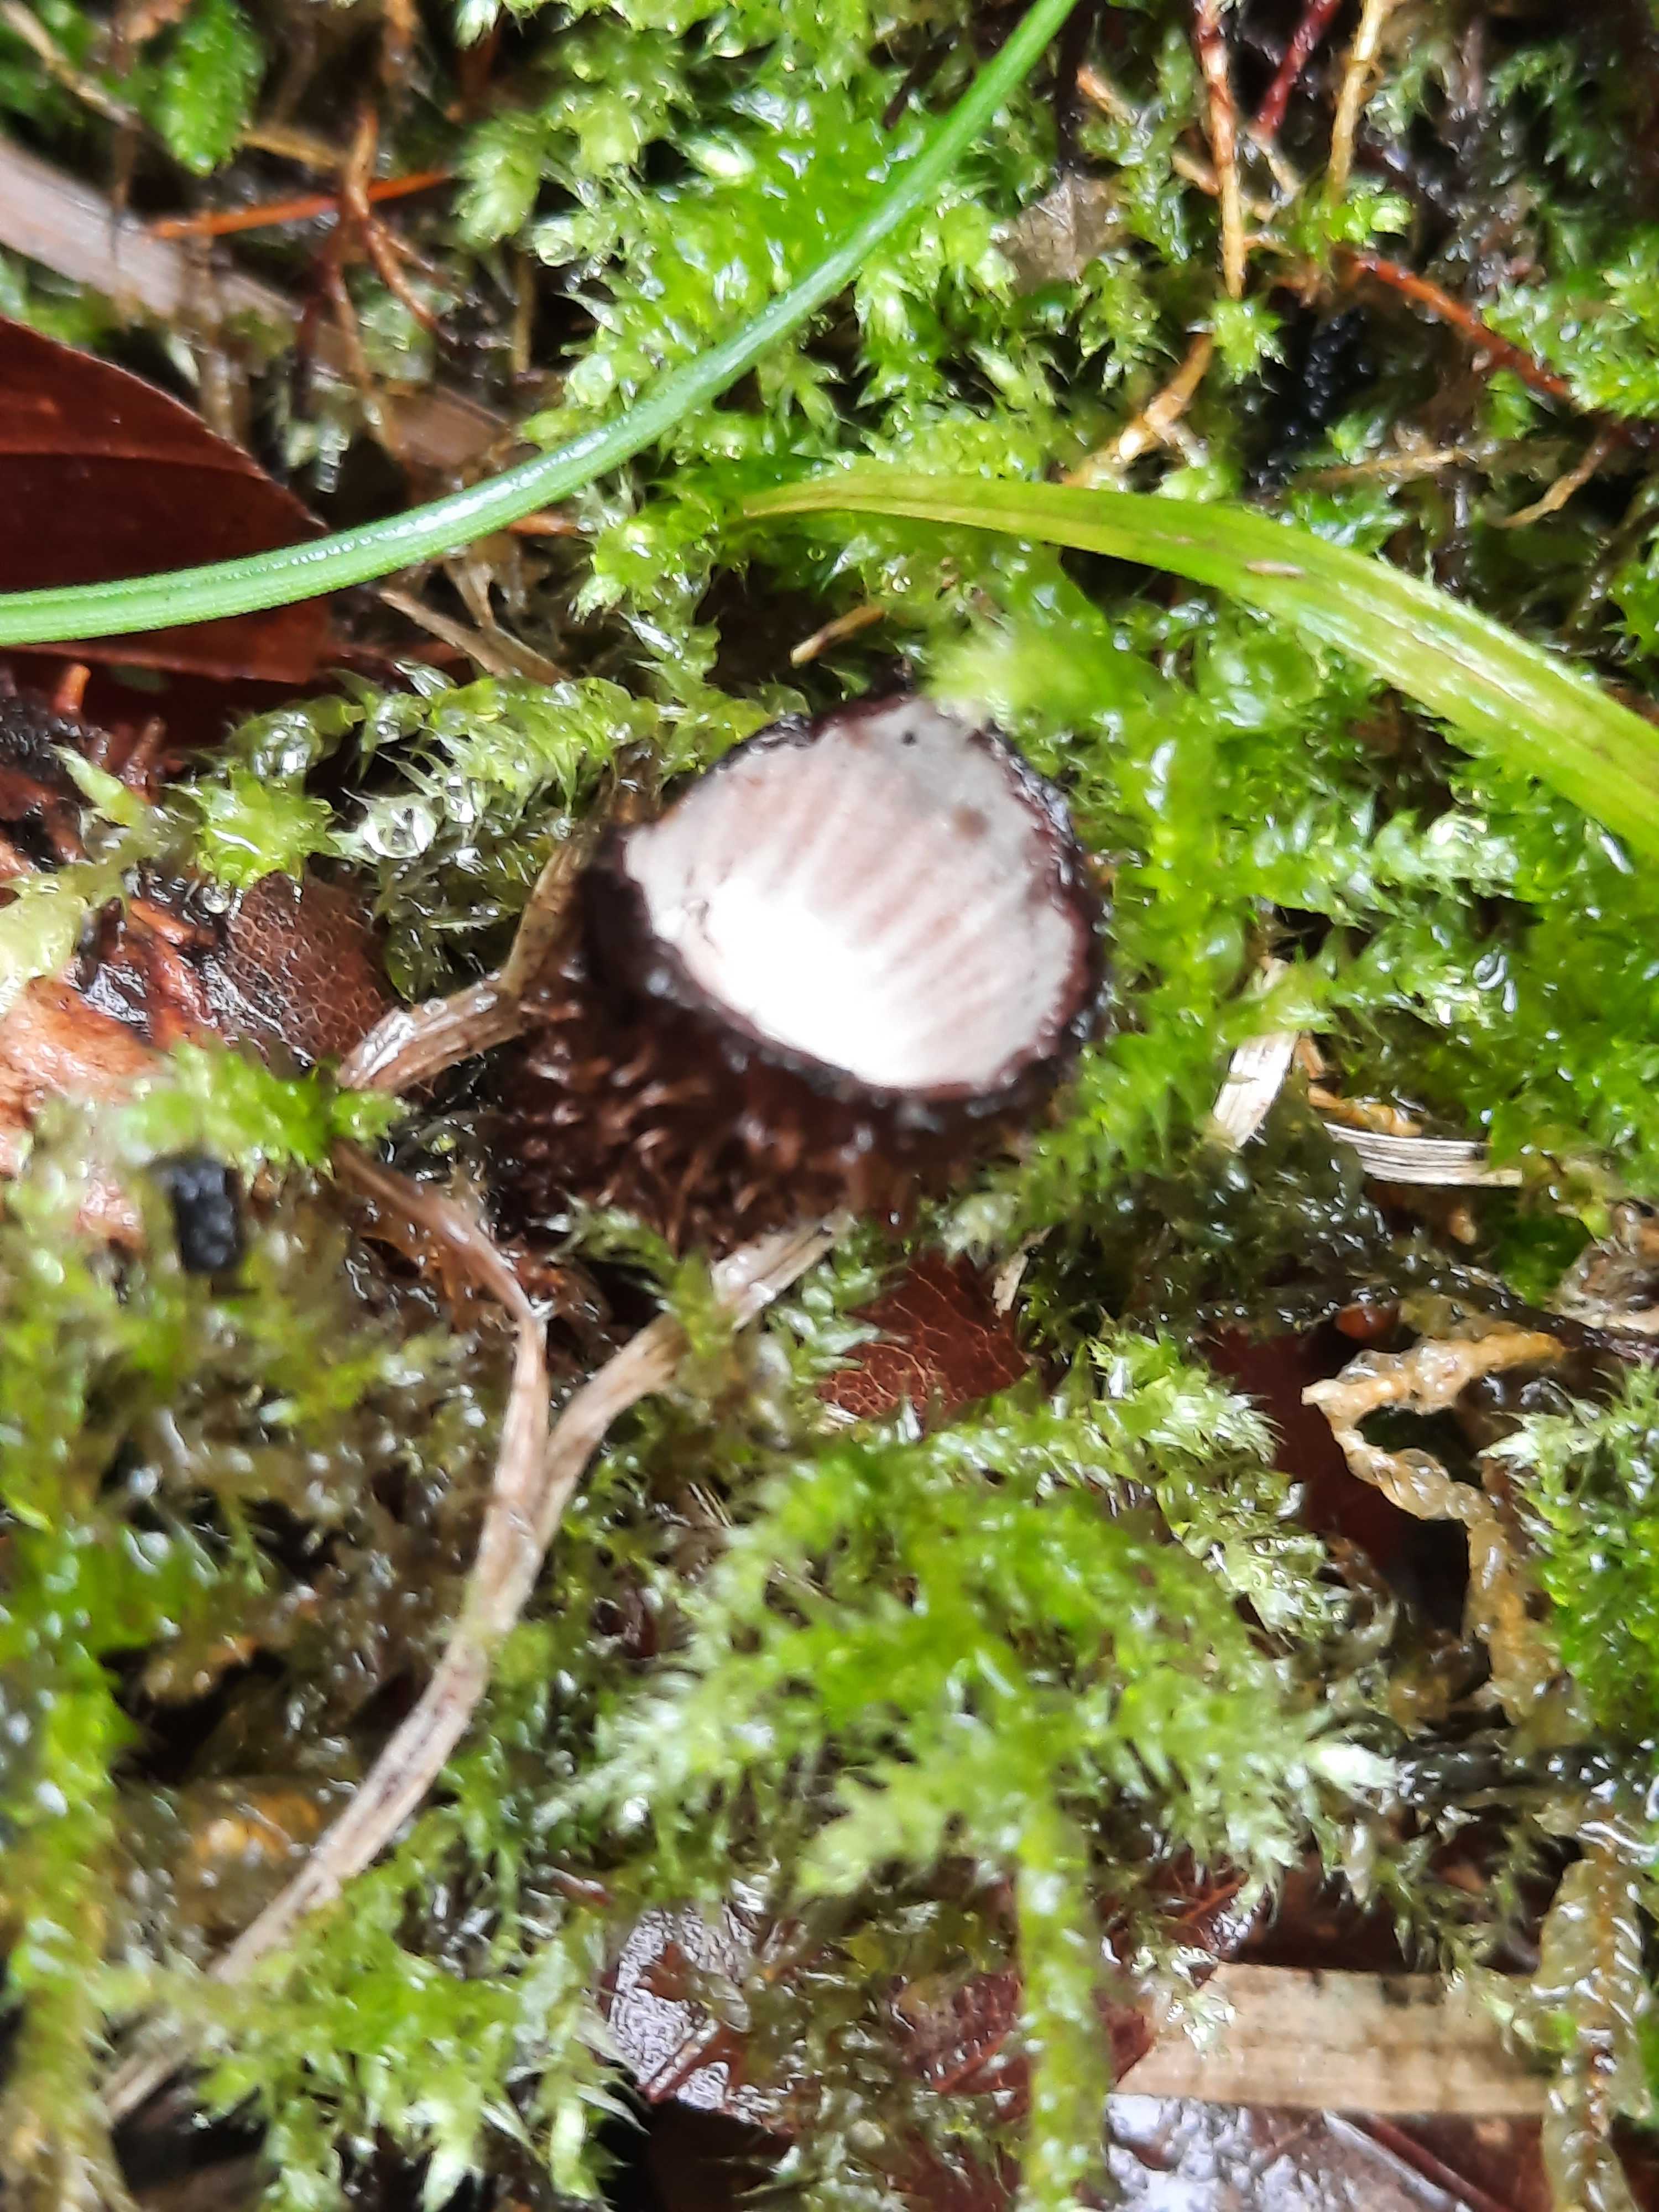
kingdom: Fungi
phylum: Basidiomycota
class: Agaricomycetes
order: Agaricales
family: Agaricaceae
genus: Cyathus
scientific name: Cyathus striatus
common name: stribet redesvamp
